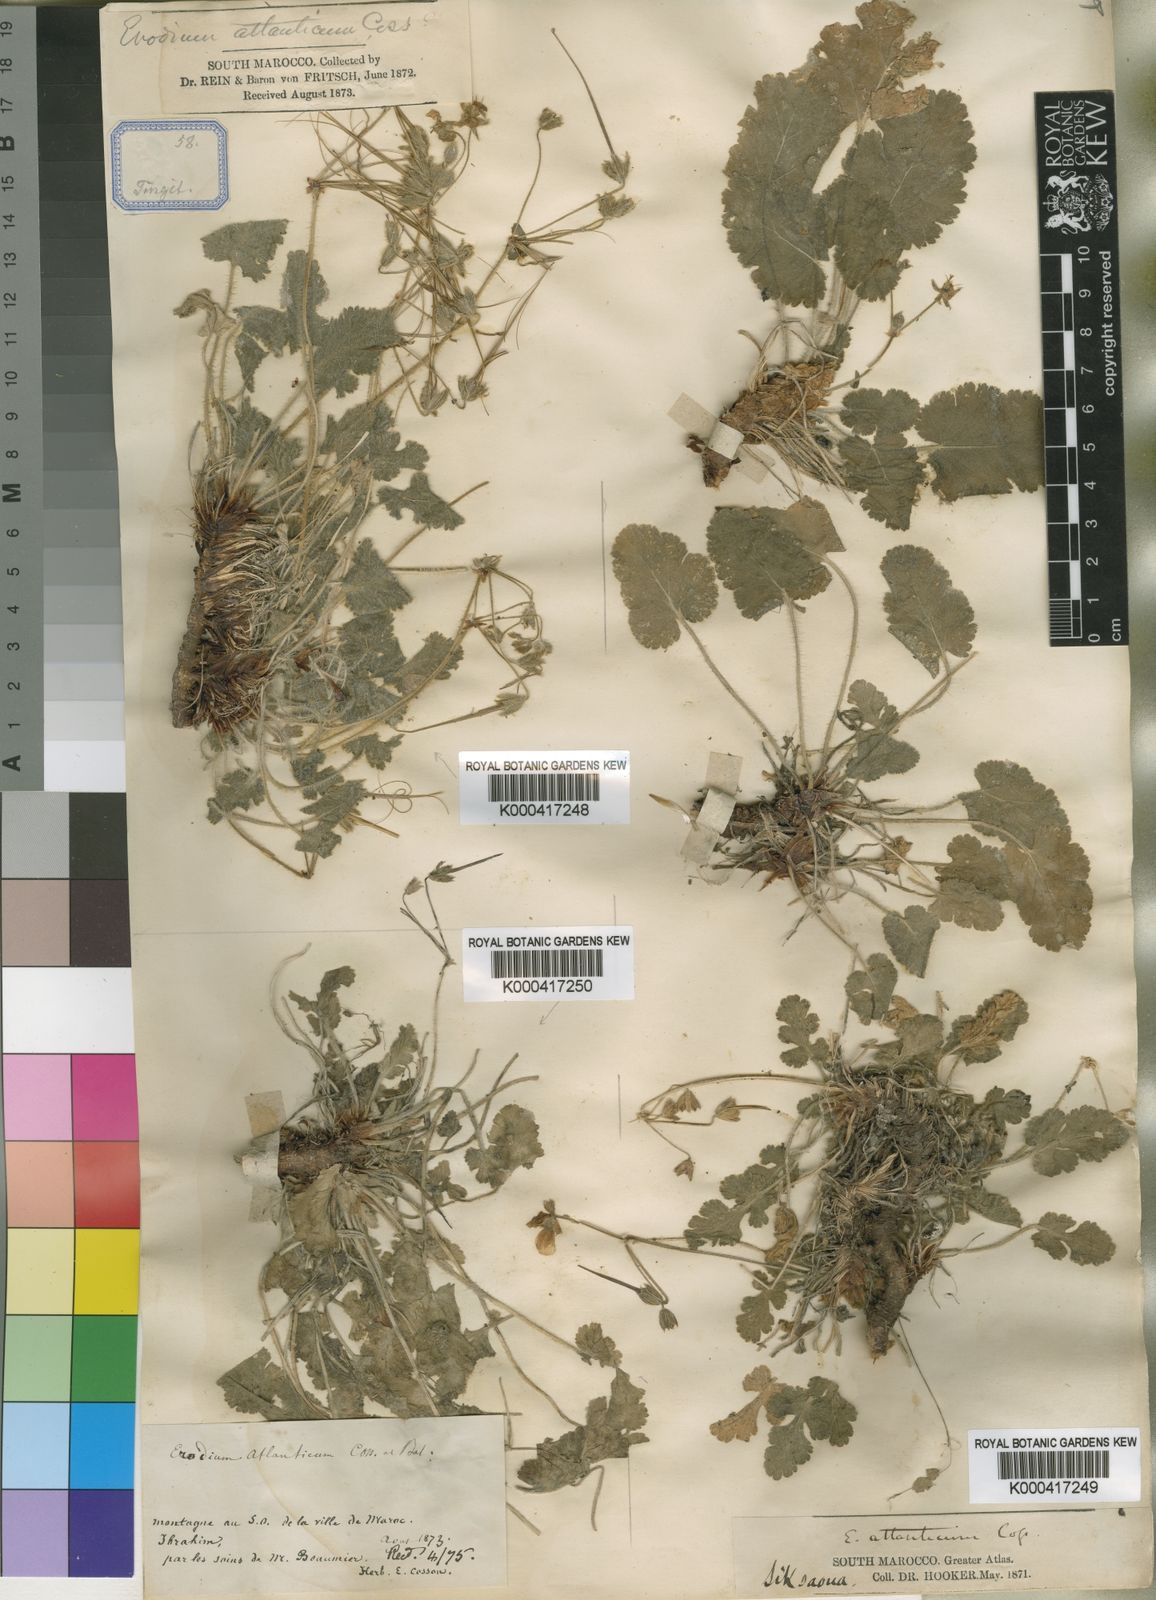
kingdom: Plantae
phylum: Tracheophyta
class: Magnoliopsida
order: Geraniales
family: Geraniaceae
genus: Erodium
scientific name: Erodium atlanticum
